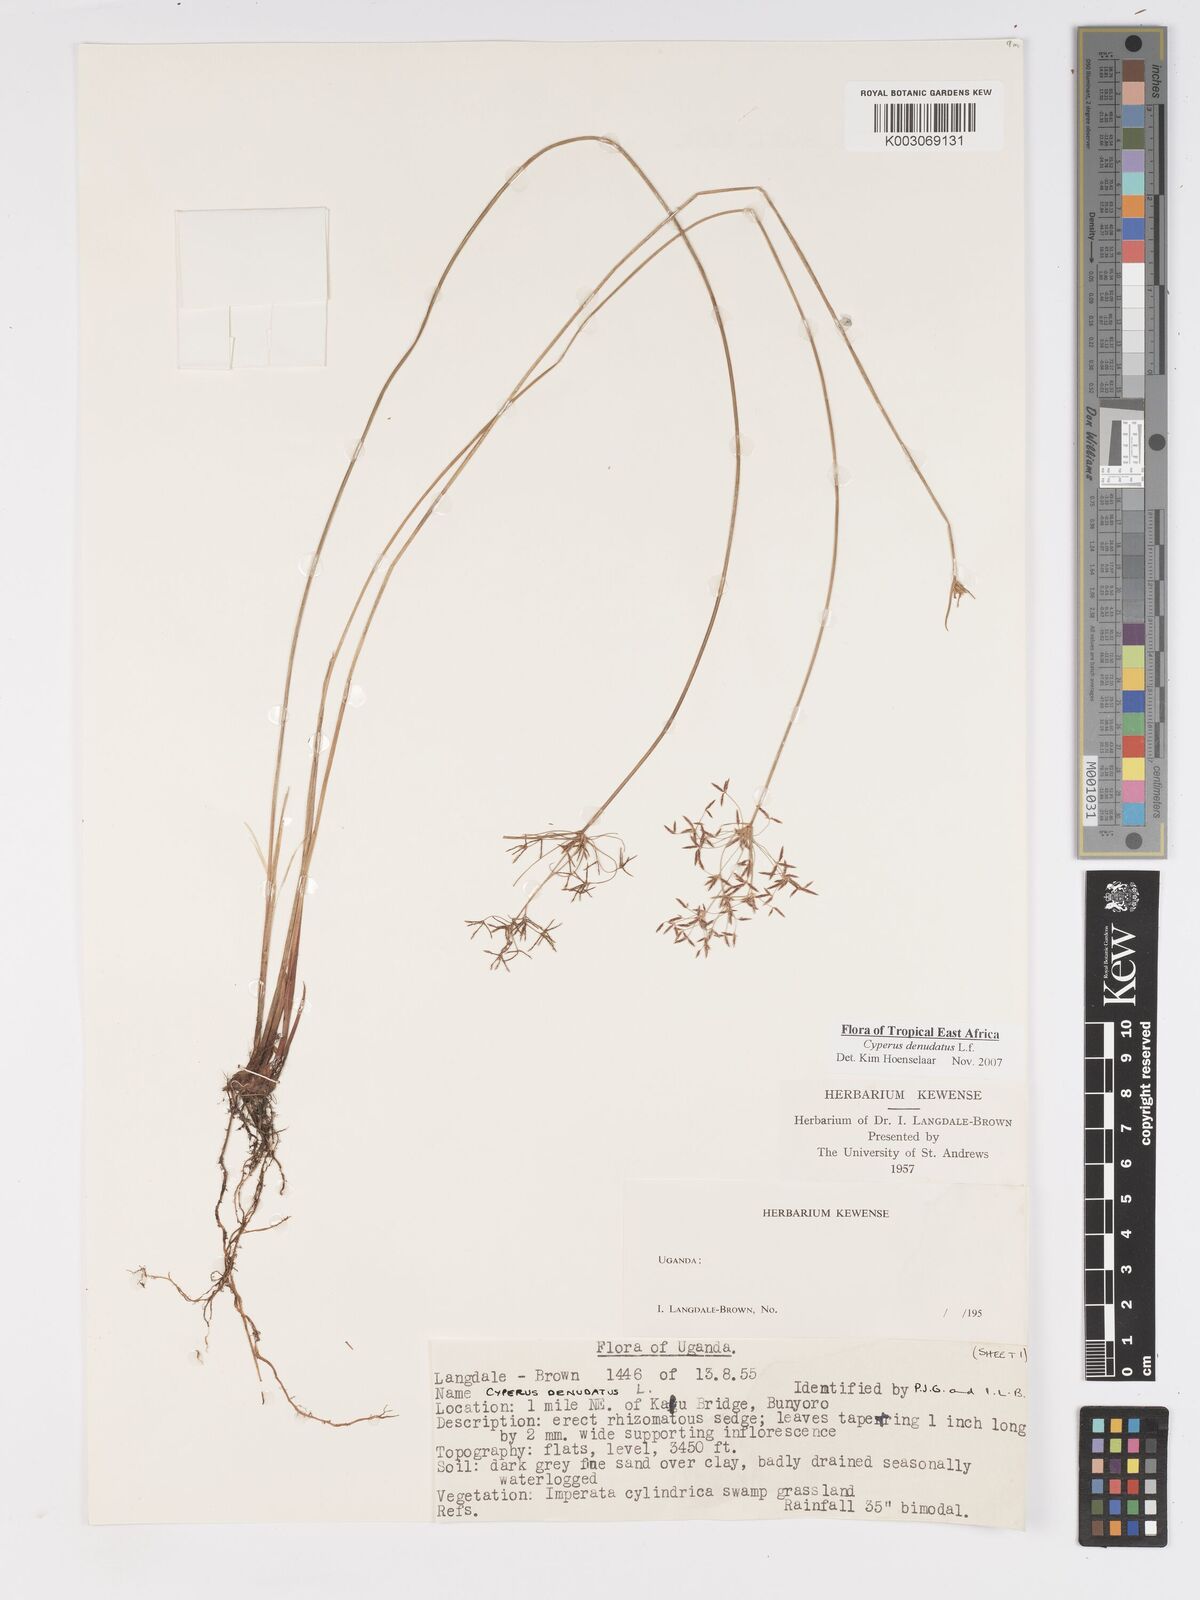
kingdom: Plantae
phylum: Tracheophyta
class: Liliopsida
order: Poales
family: Cyperaceae
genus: Cyperus
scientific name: Cyperus platycaulis
